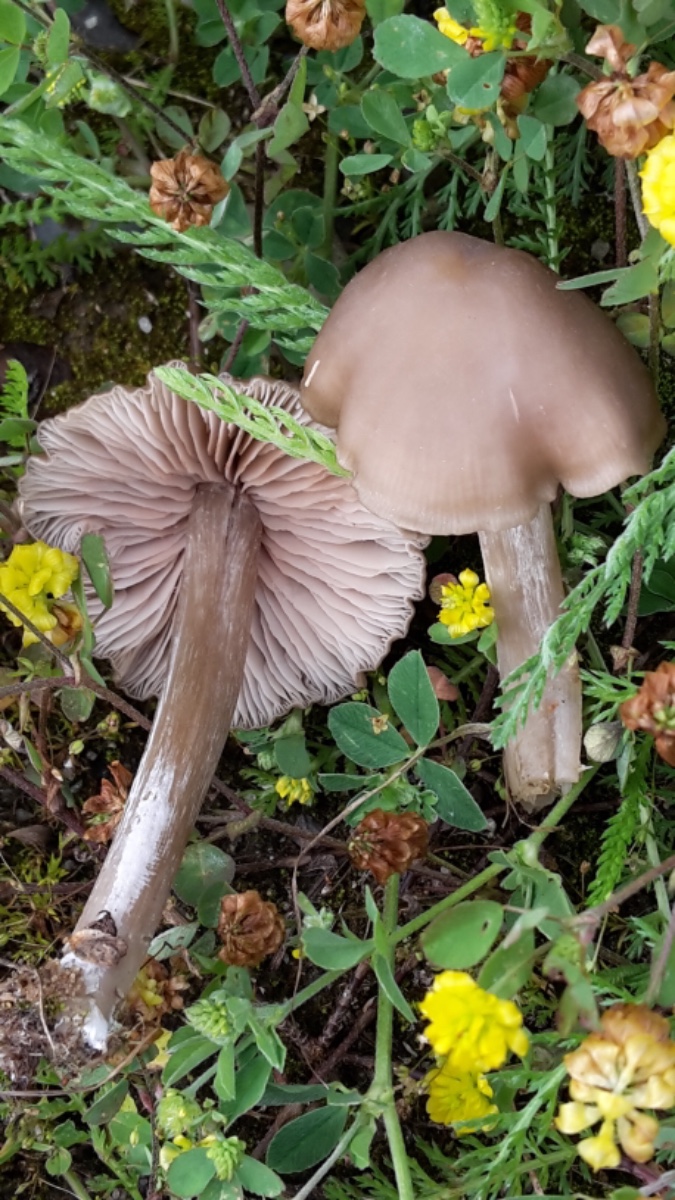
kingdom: Fungi
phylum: Basidiomycota
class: Agaricomycetes
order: Agaricales
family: Entolomataceae
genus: Entoloma
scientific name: Entoloma
